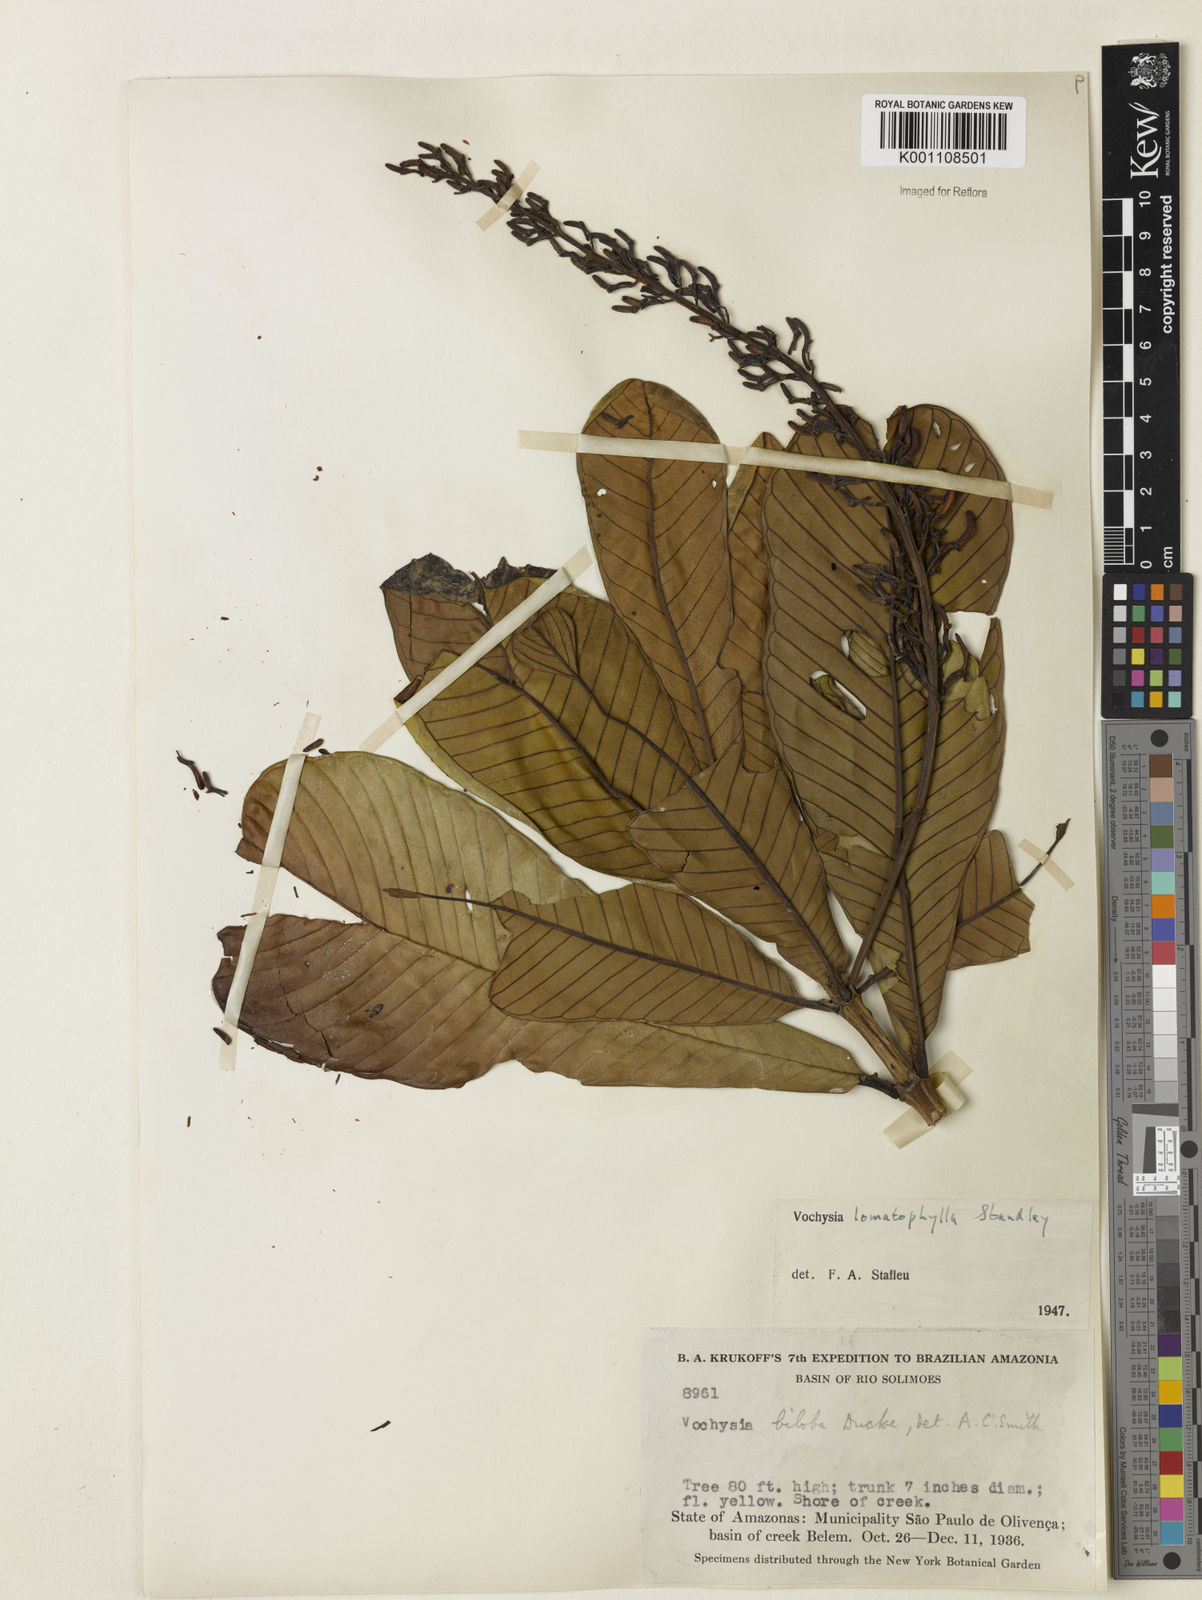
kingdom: Plantae
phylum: Tracheophyta
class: Magnoliopsida
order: Myrtales
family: Vochysiaceae
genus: Vochysia
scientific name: Vochysia lomatophylla
